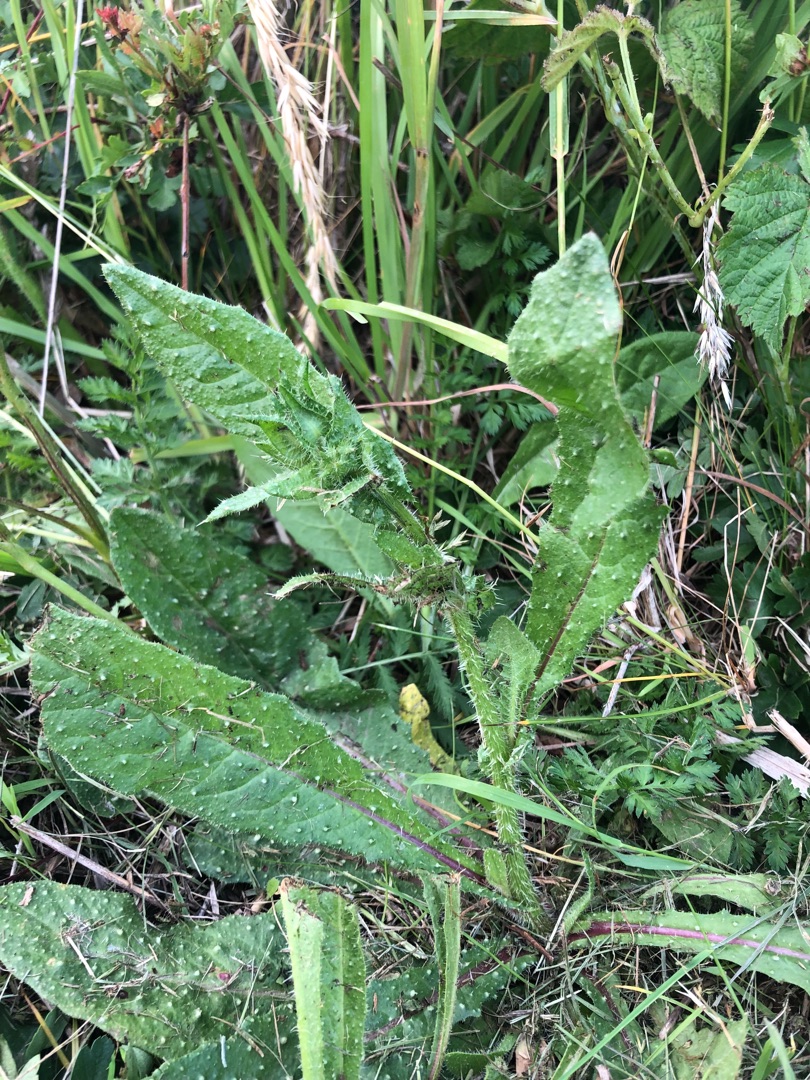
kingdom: Plantae
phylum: Tracheophyta
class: Magnoliopsida
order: Asterales
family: Asteraceae
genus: Helminthotheca
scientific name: Helminthotheca echioides
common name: Vingekurv
